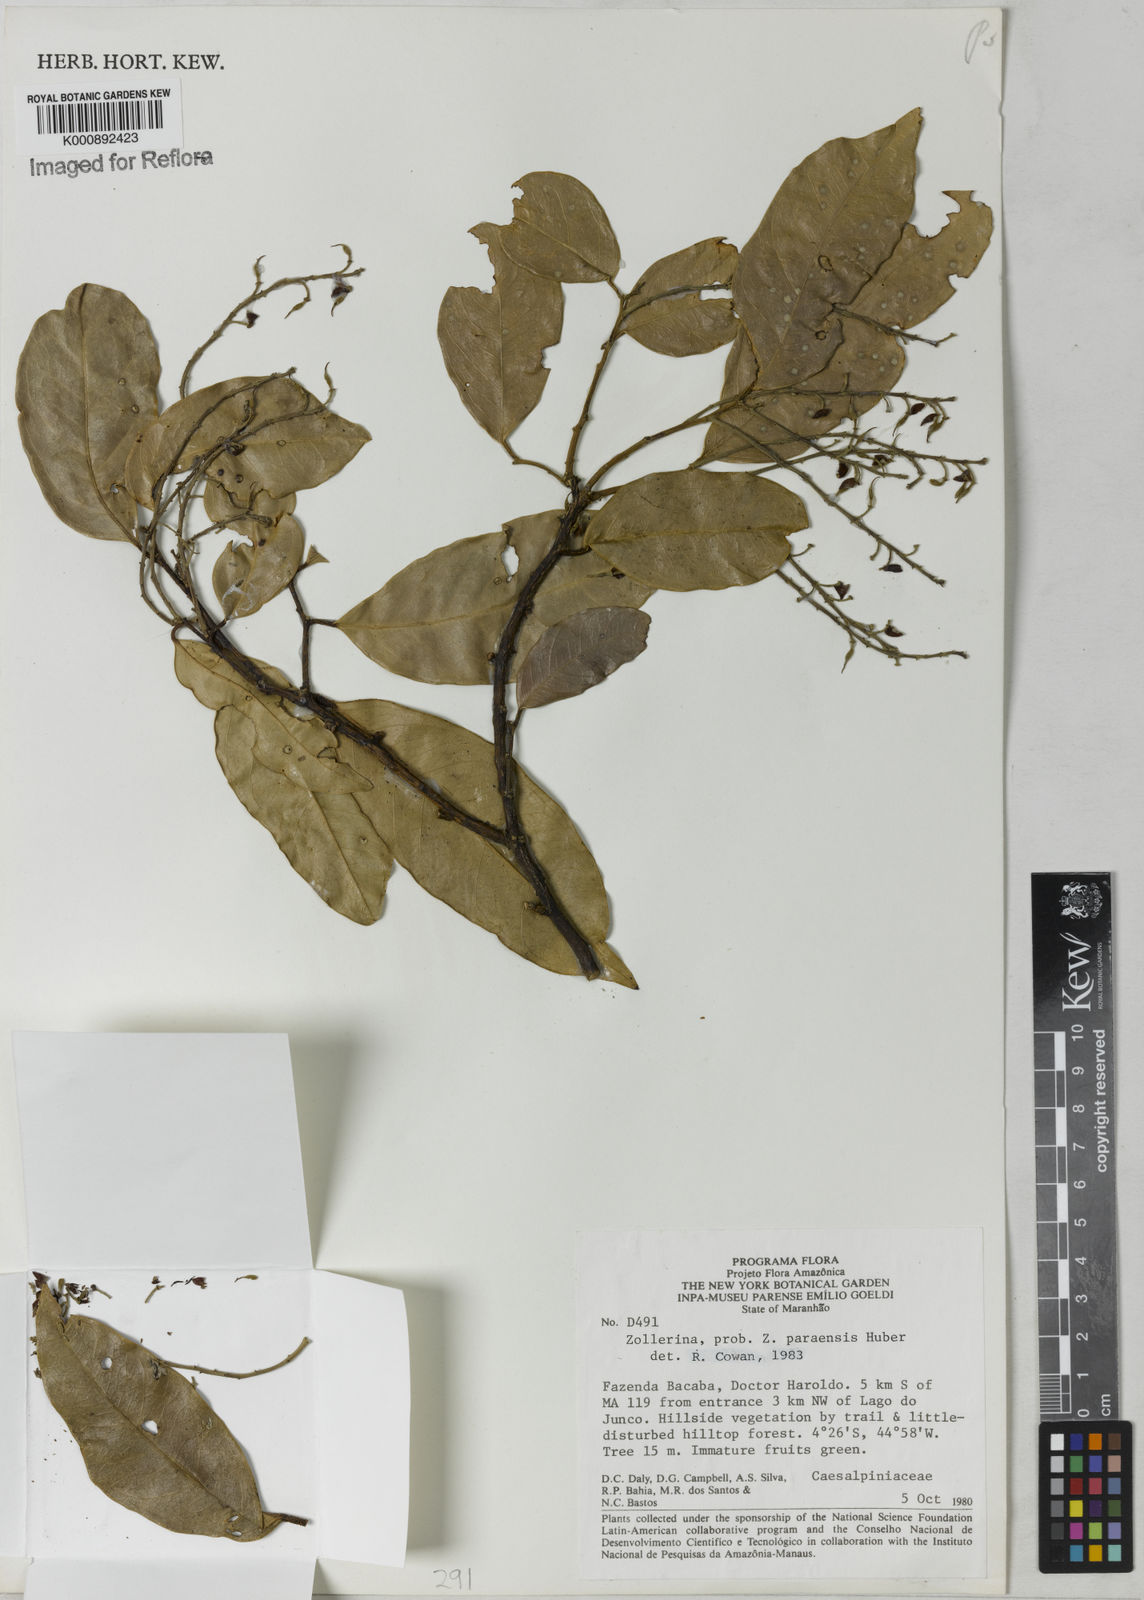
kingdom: Plantae
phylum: Tracheophyta
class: Magnoliopsida
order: Fabales
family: Fabaceae
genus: Zollernia
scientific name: Zollernia paraensis
